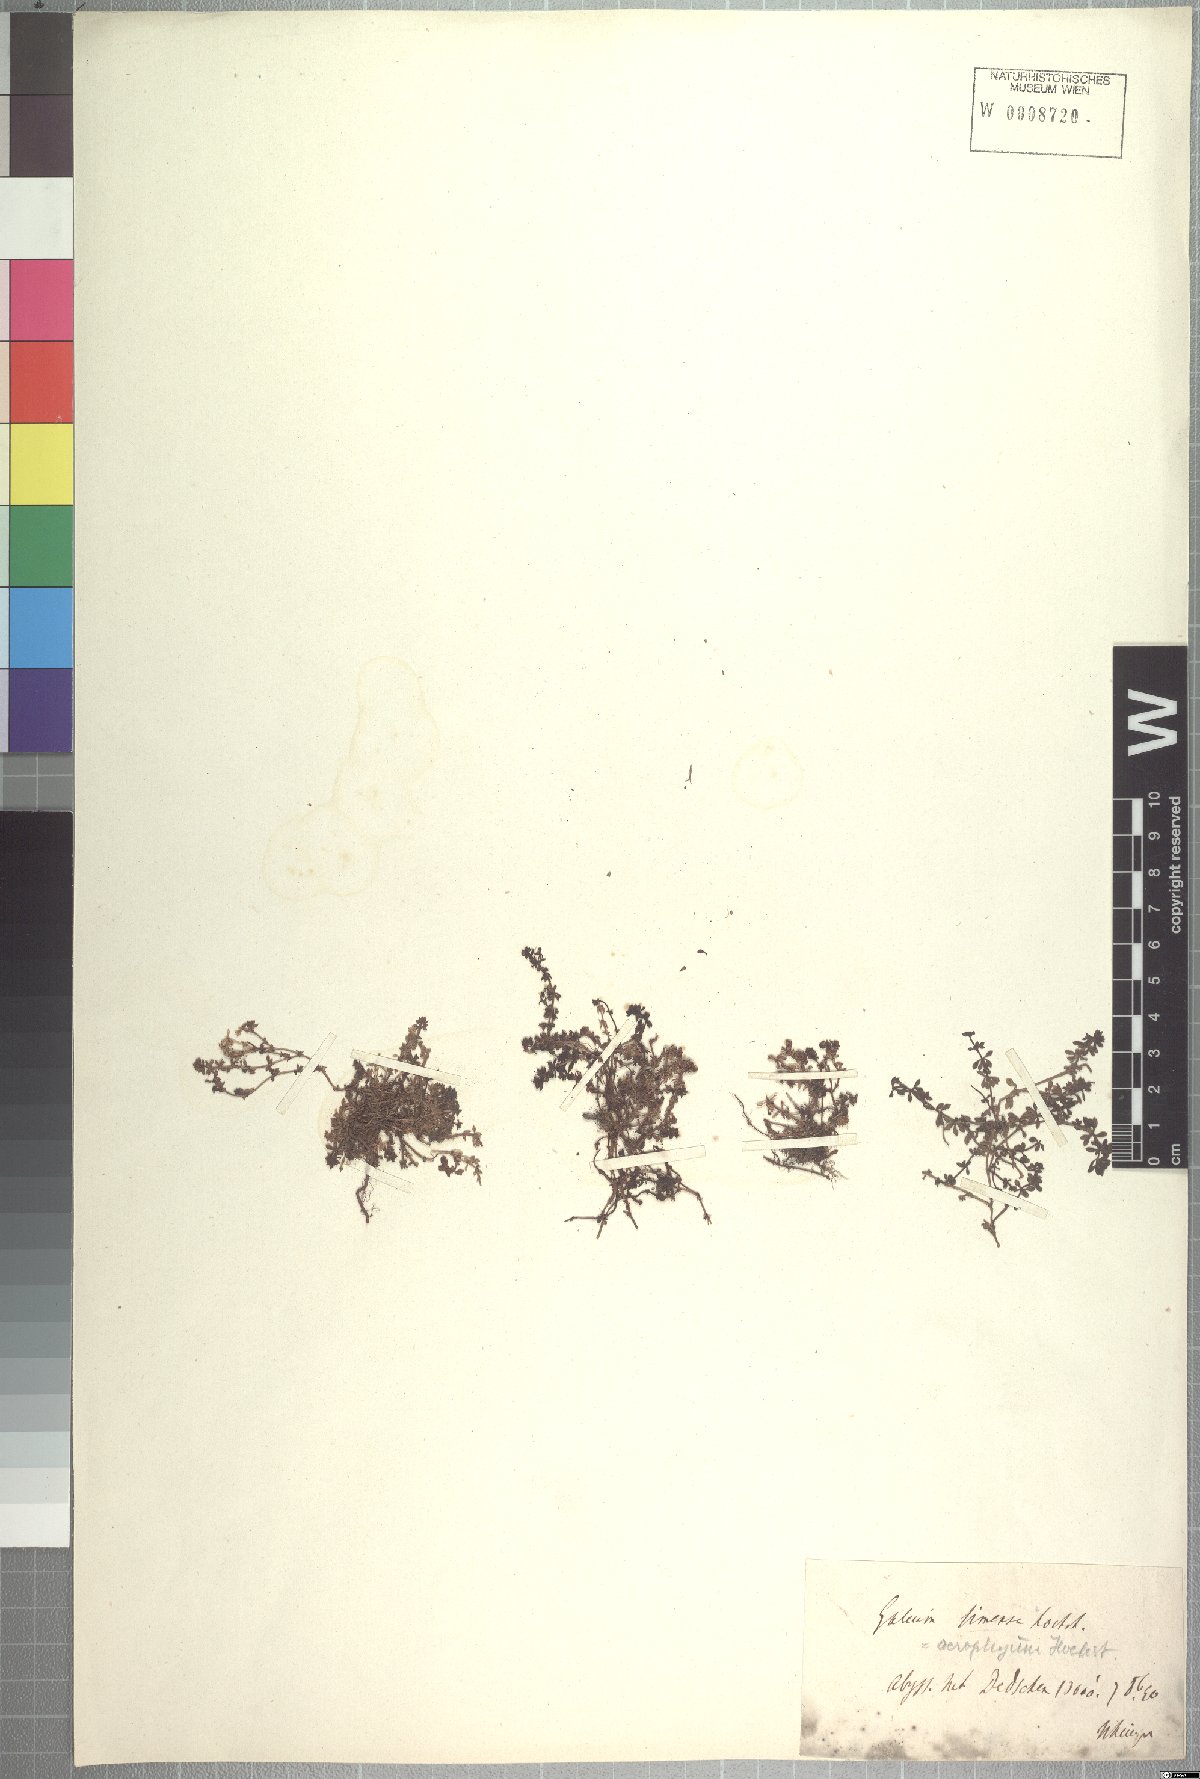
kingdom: Plantae
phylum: Tracheophyta
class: Magnoliopsida
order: Gentianales
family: Rubiaceae
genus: Galium
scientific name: Galium acrophyum
